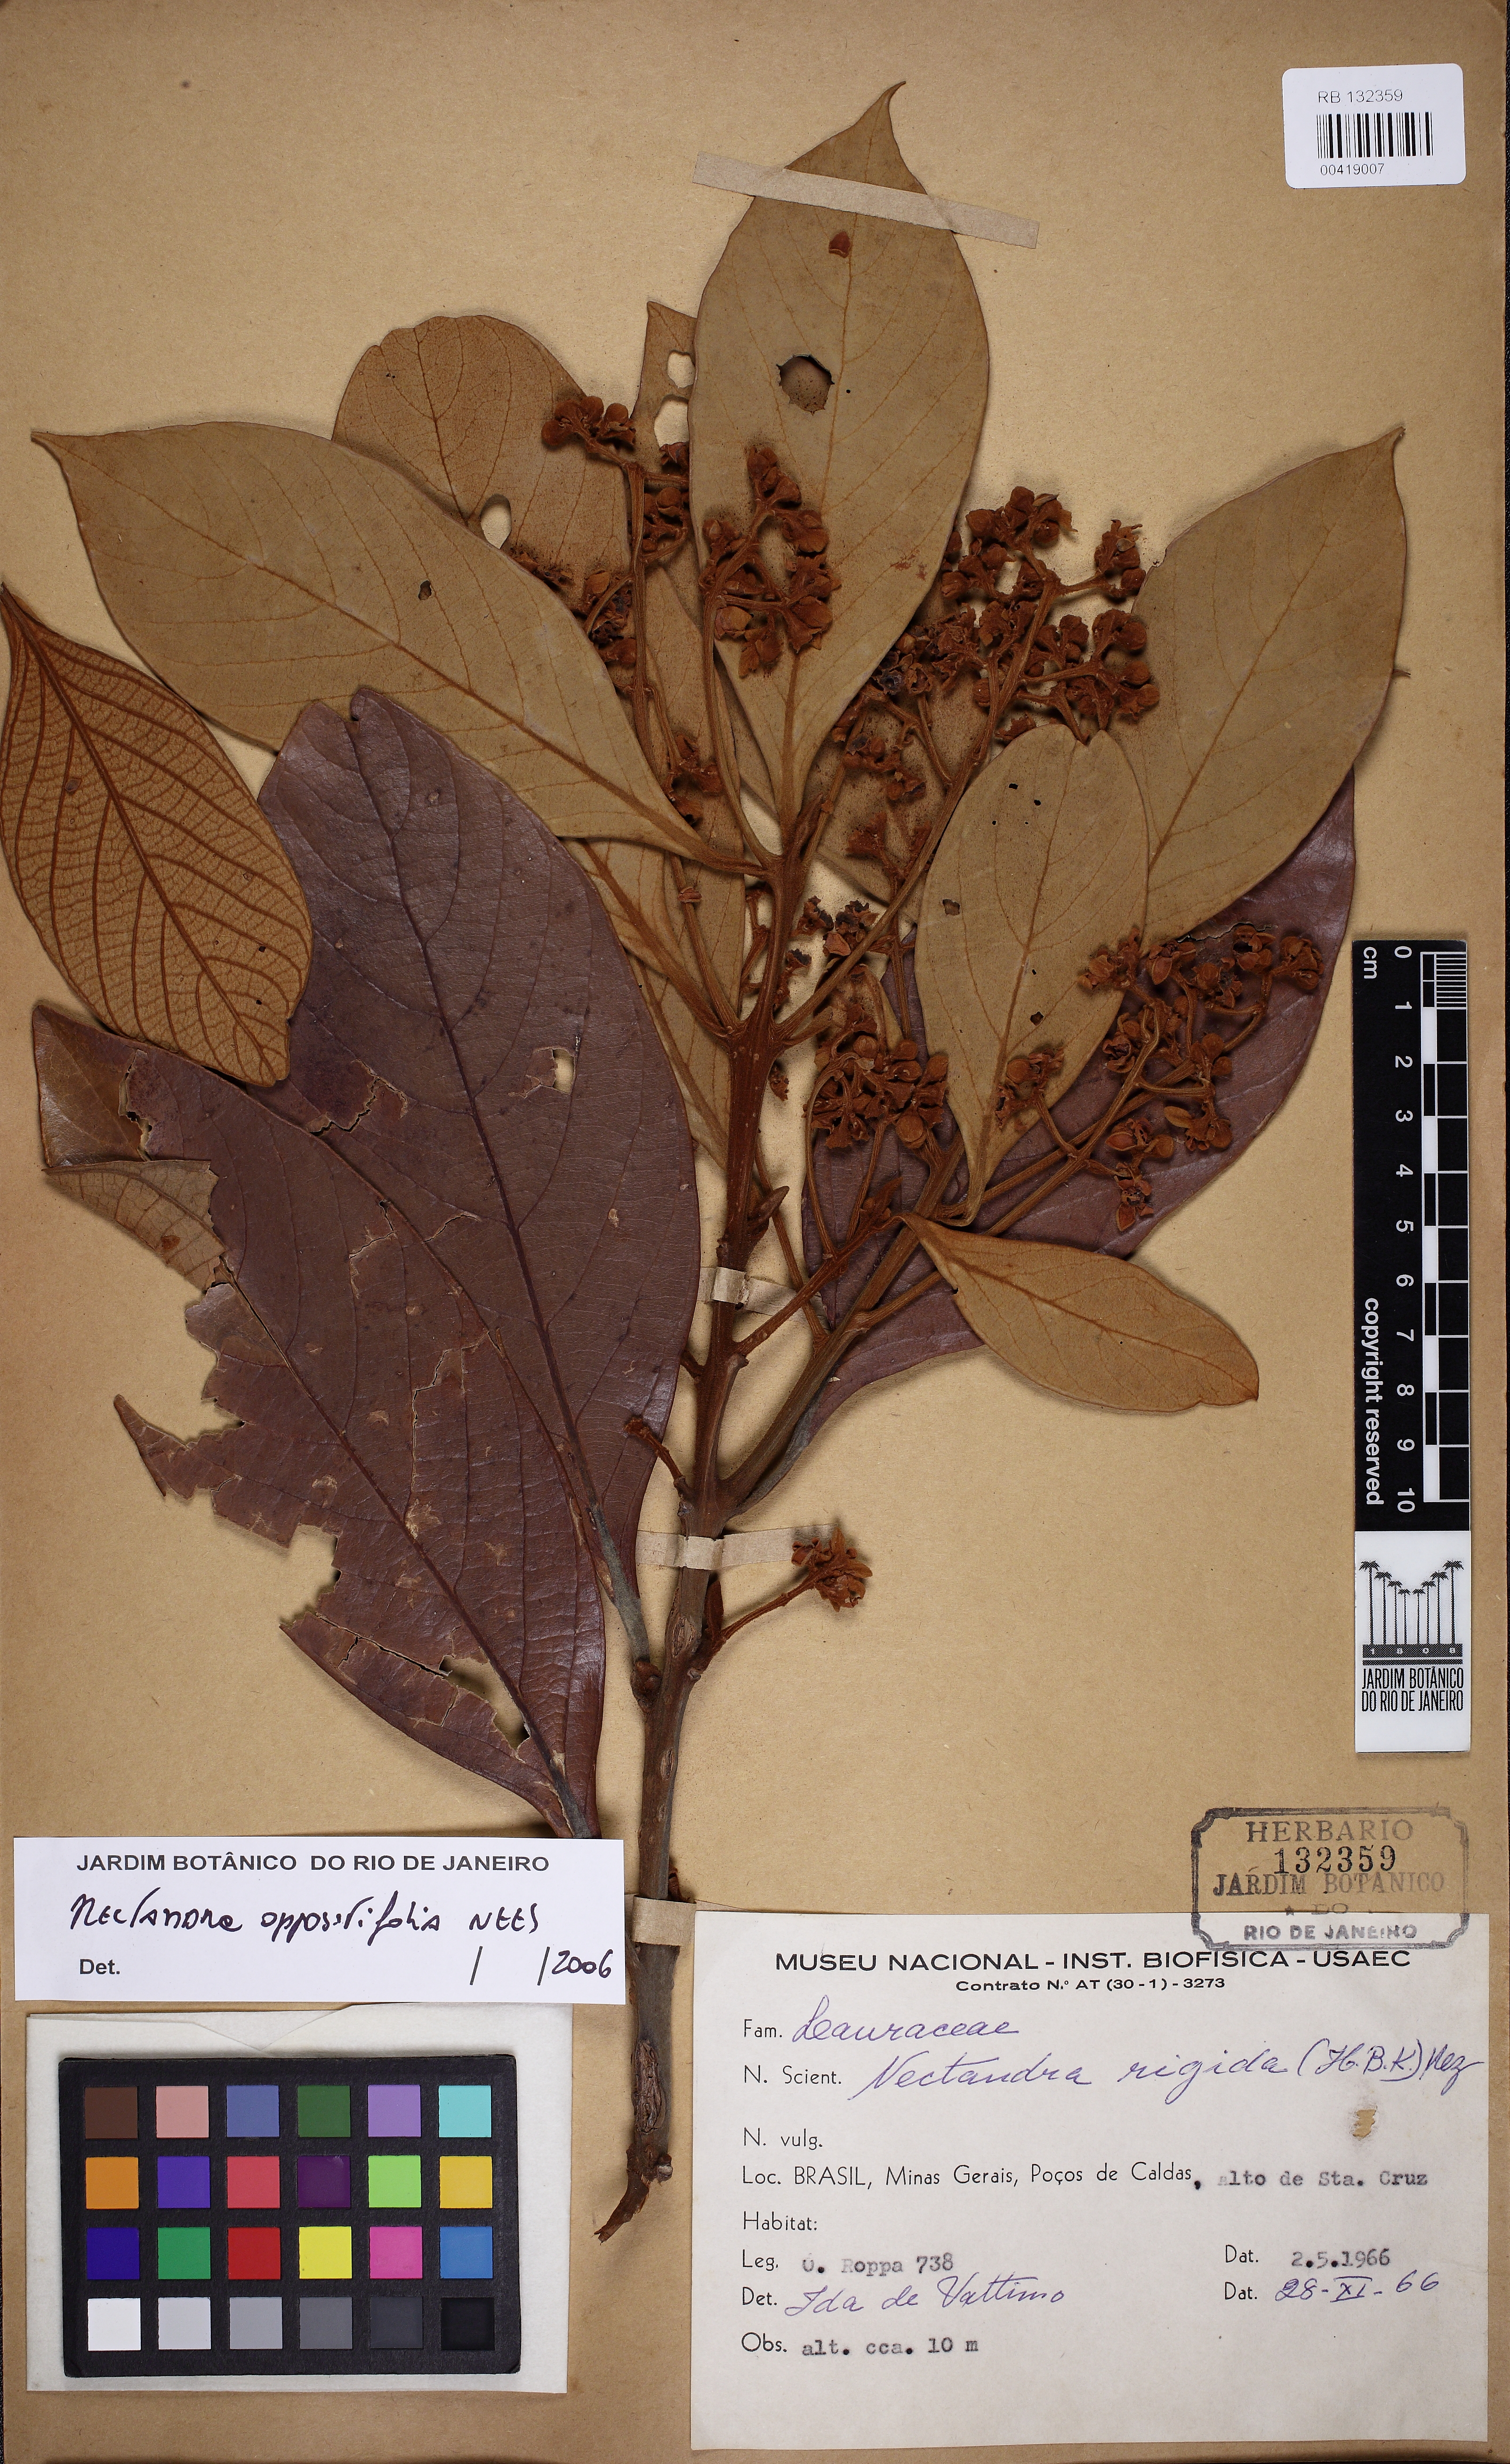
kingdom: Plantae
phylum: Tracheophyta
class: Magnoliopsida
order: Laurales
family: Lauraceae
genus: Nectandra
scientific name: Nectandra oppositifolia
